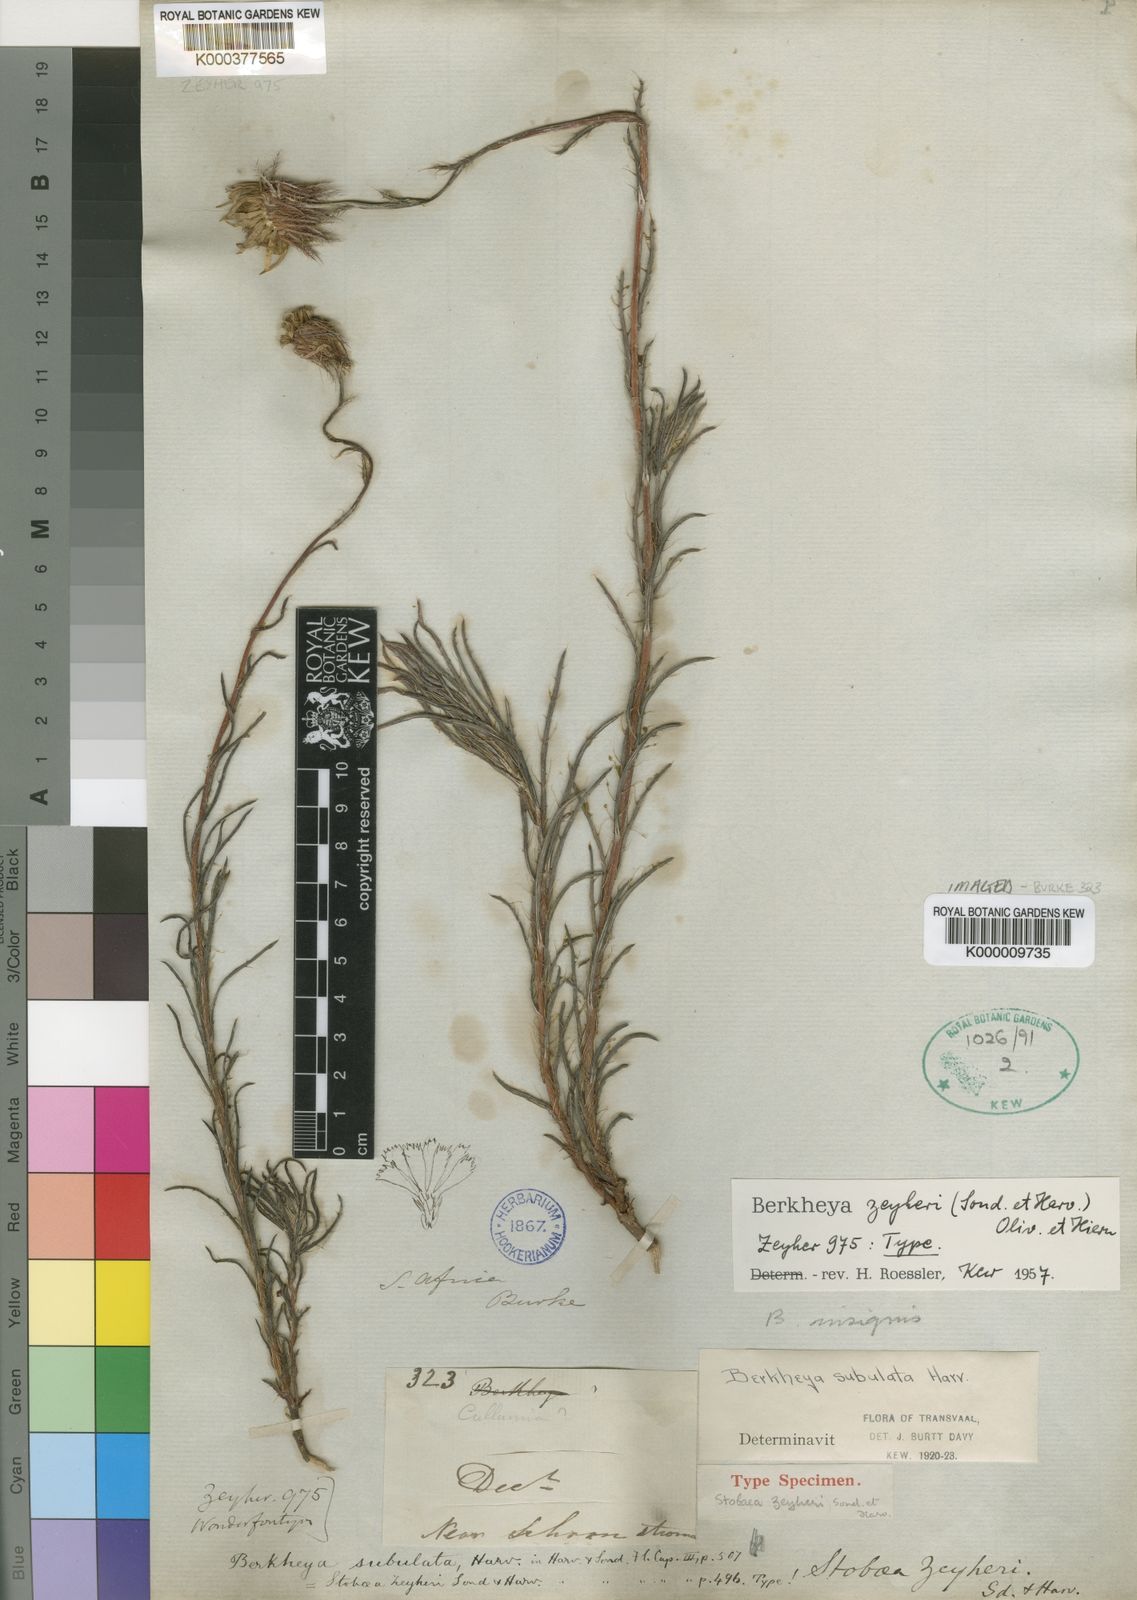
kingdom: Plantae
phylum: Tracheophyta
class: Magnoliopsida
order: Asterales
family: Asteraceae
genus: Berkheya
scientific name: Berkheya
